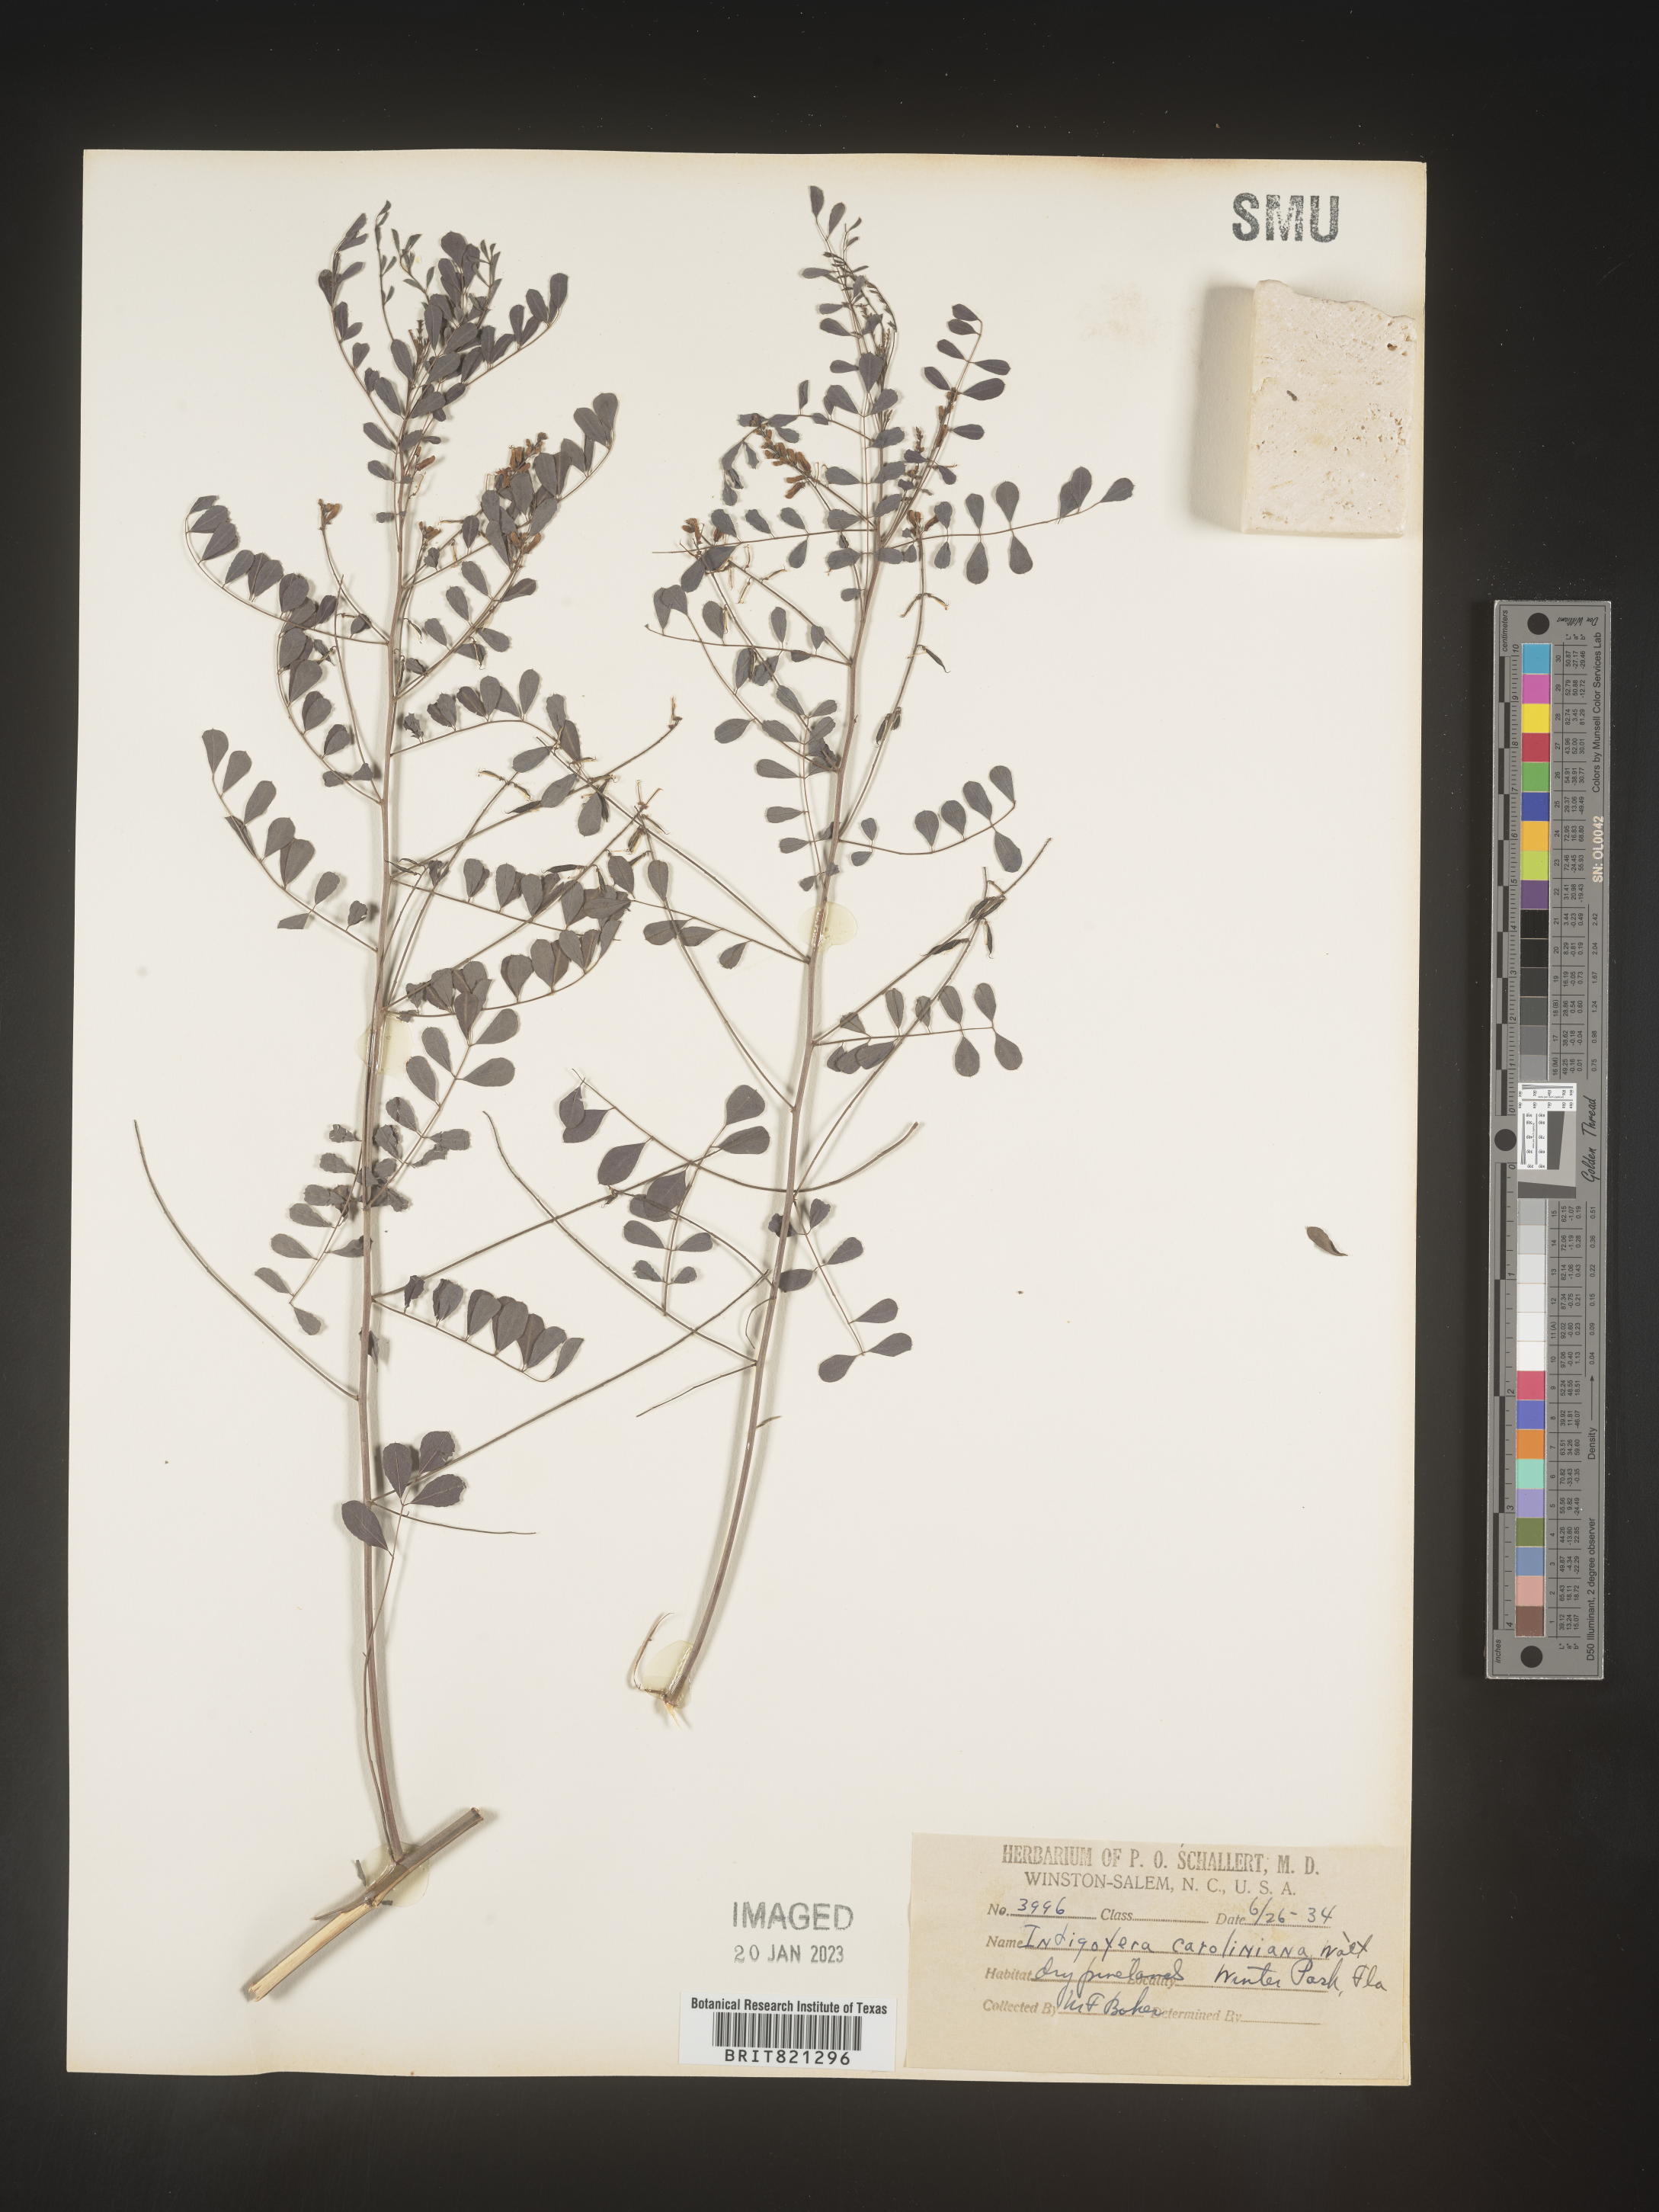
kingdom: Plantae
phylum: Tracheophyta
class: Magnoliopsida
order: Fabales
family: Fabaceae
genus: Indigofera
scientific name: Indigofera
